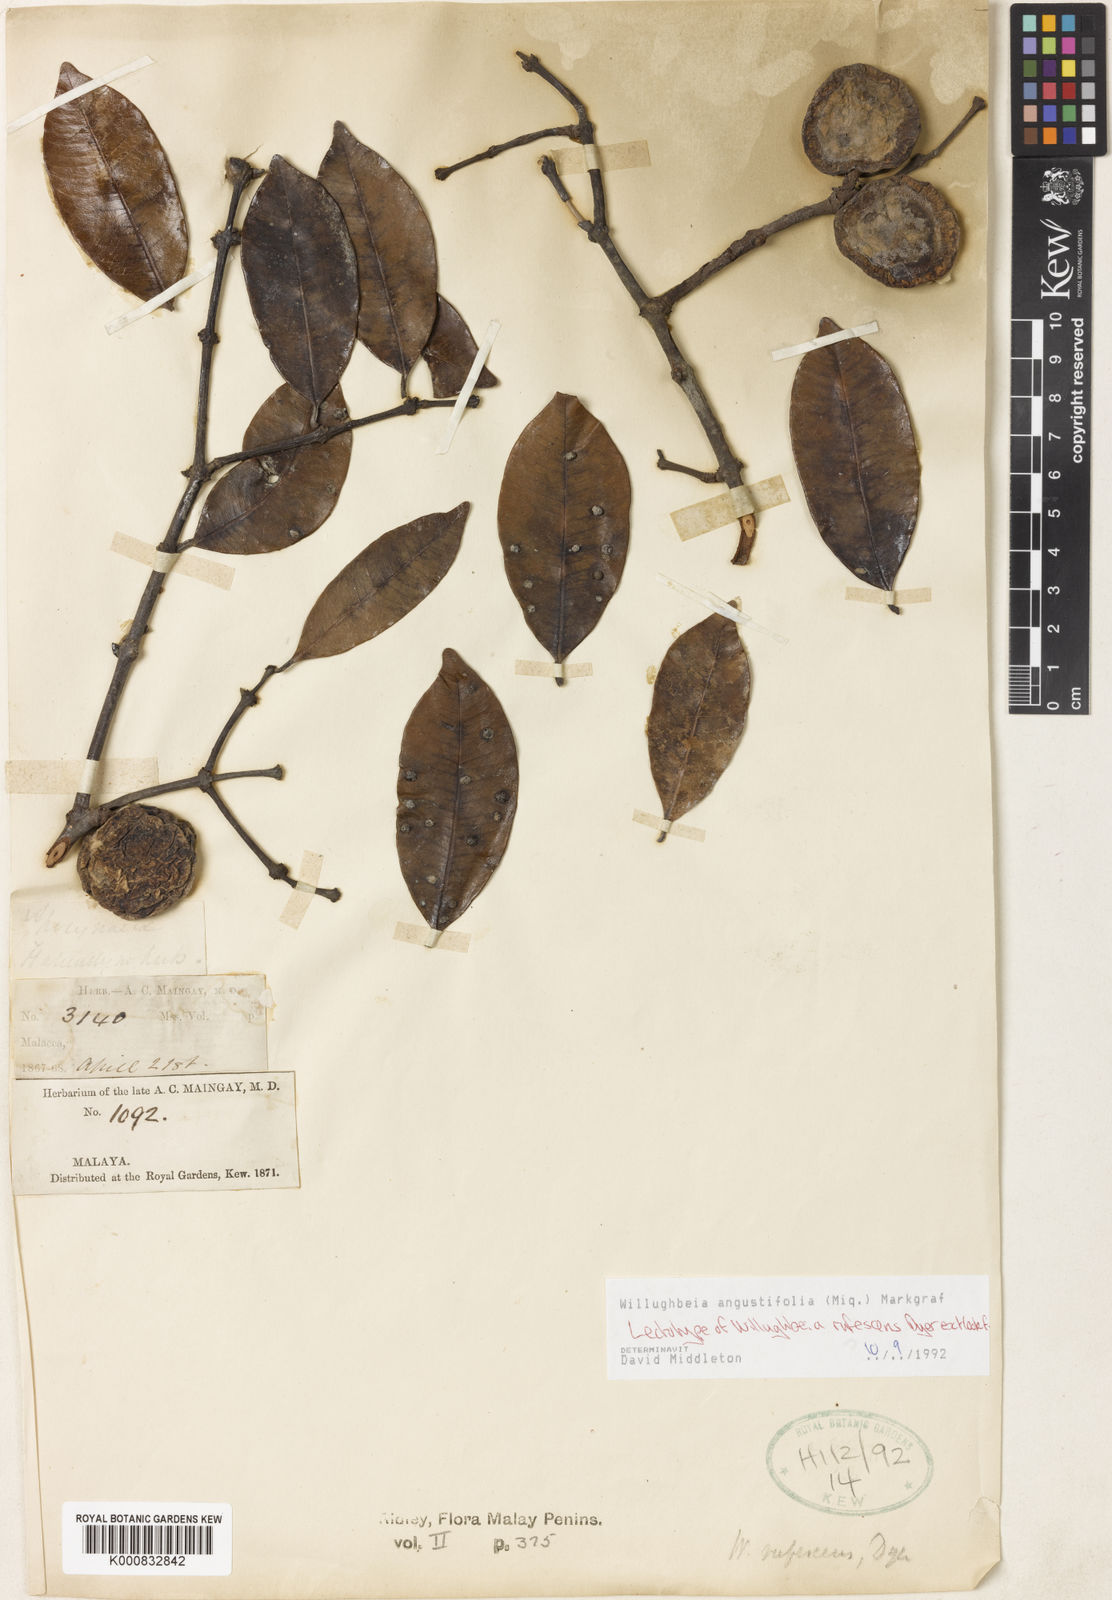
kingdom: Plantae
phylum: Tracheophyta
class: Magnoliopsida
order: Gentianales
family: Apocynaceae
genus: Willughbeia
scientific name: Willughbeia angustifolia
